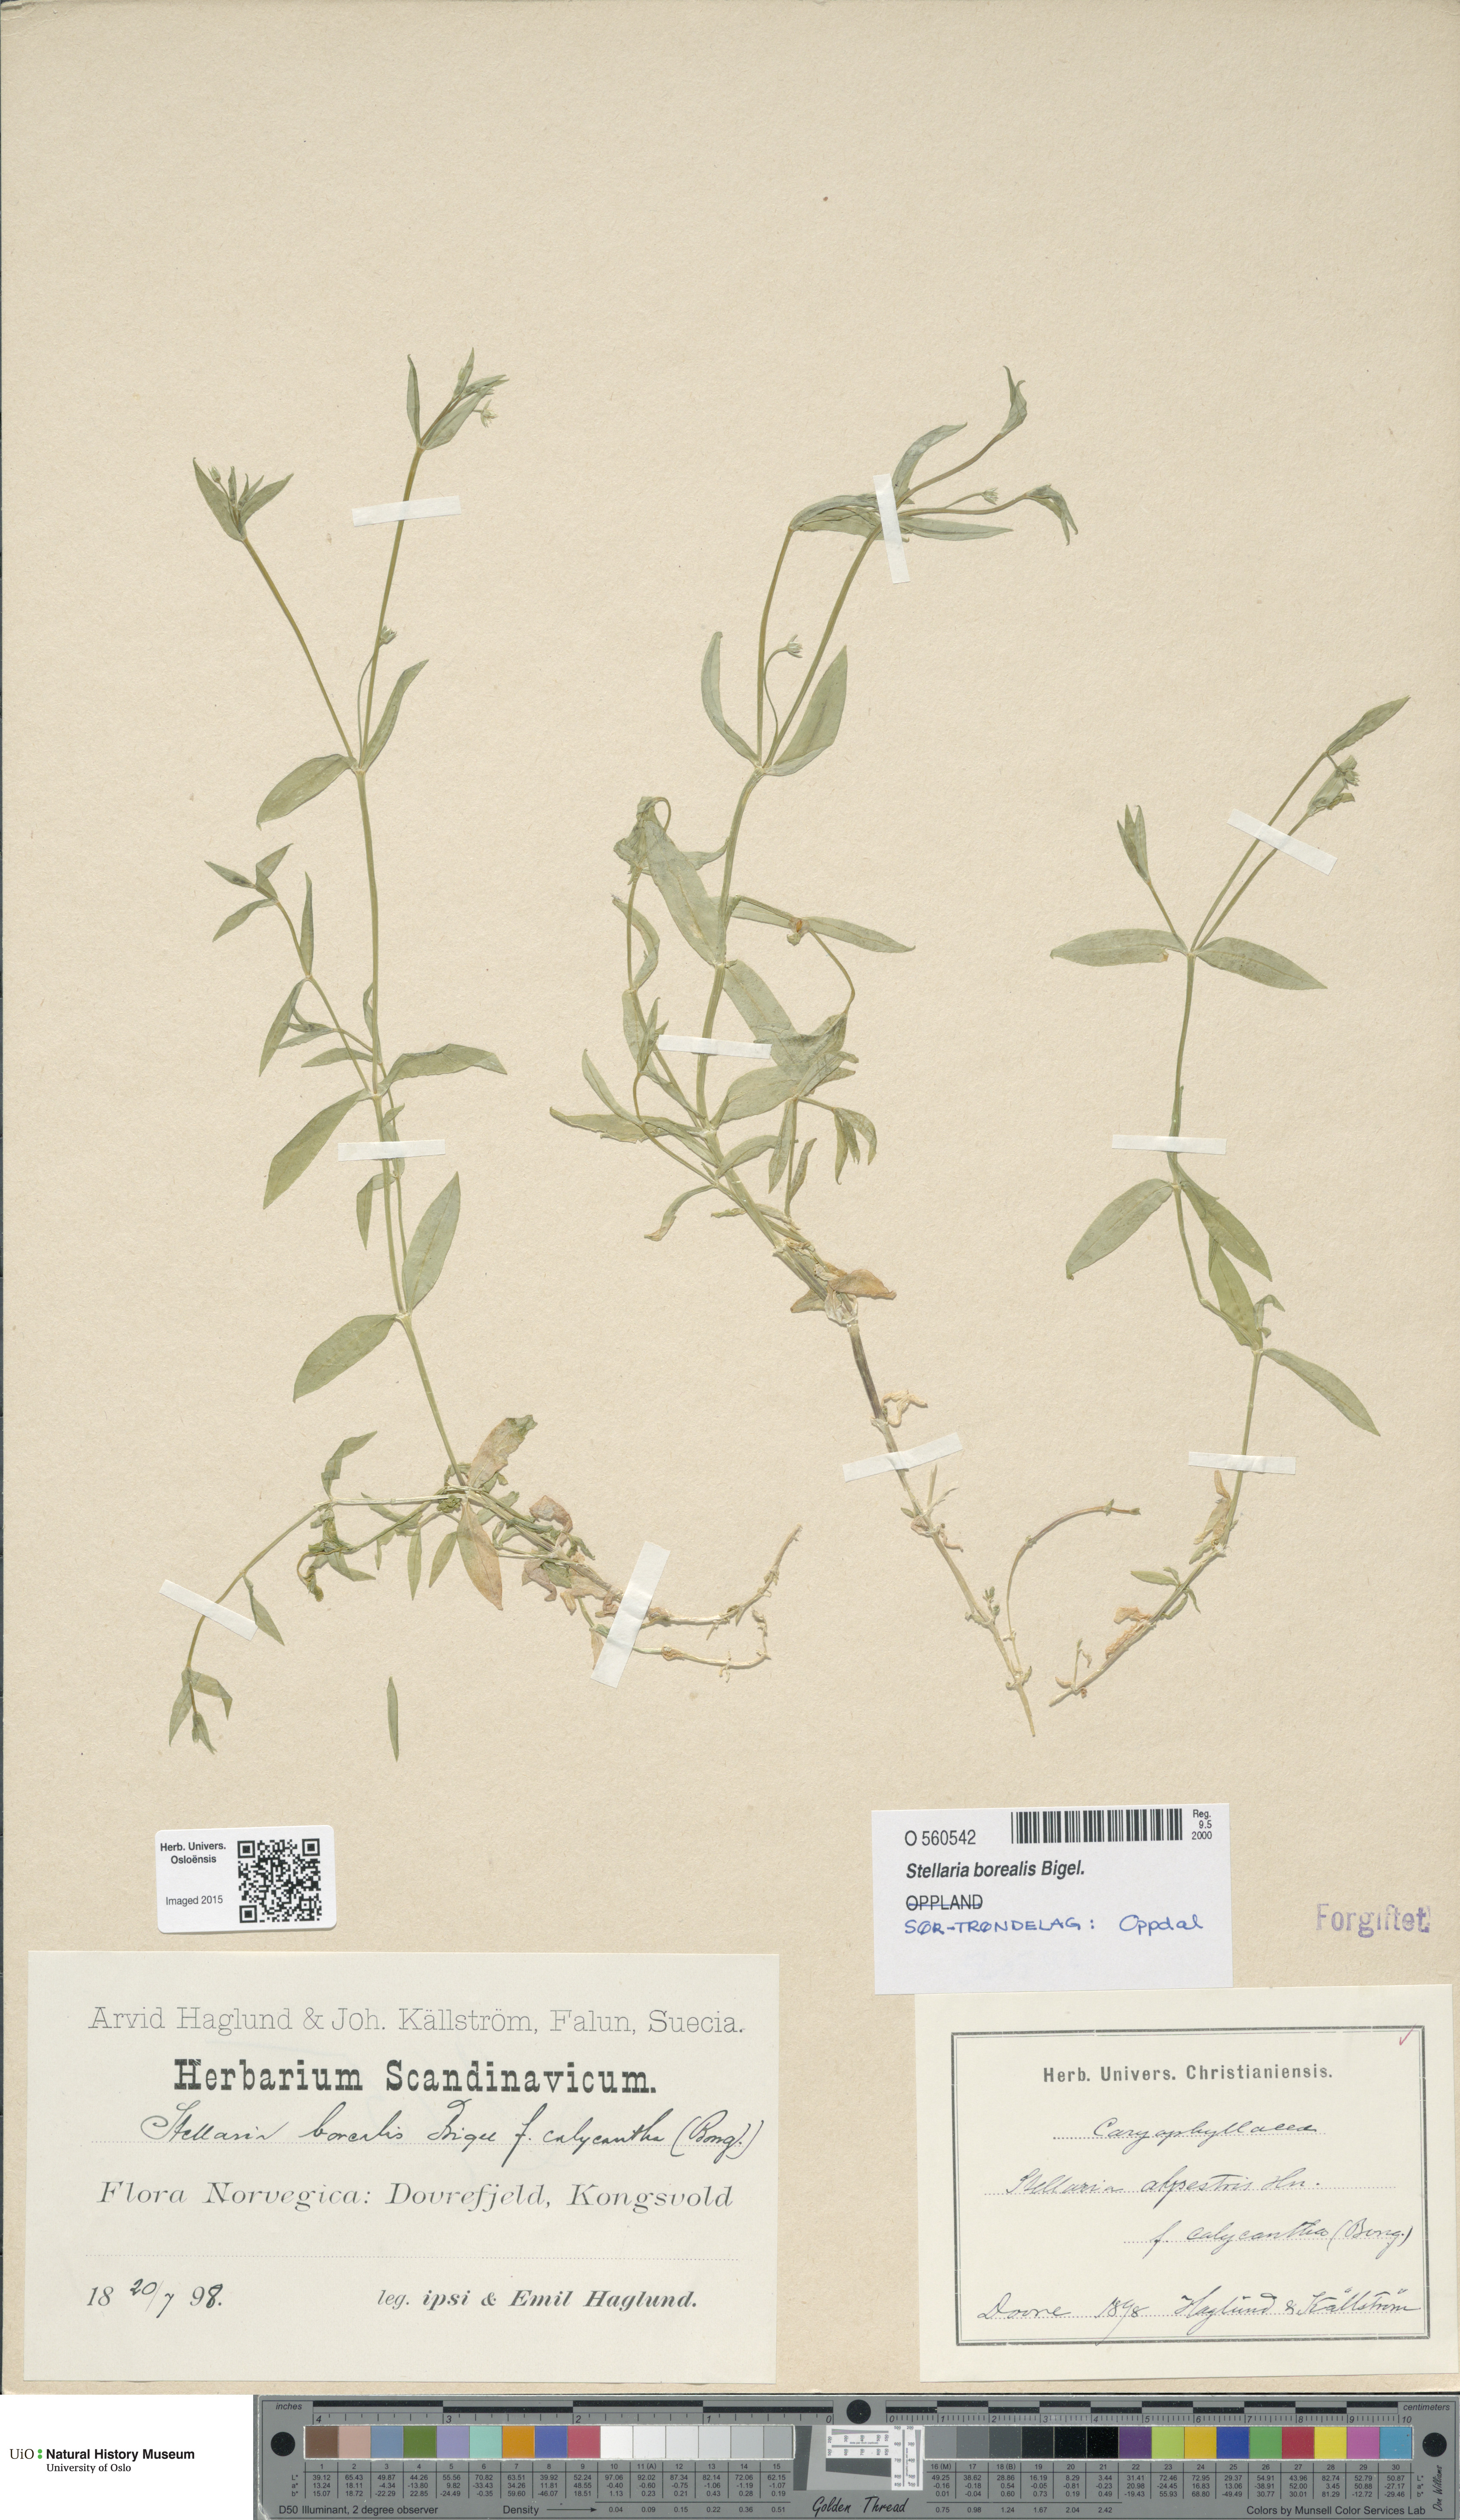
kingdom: Plantae
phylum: Tracheophyta
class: Magnoliopsida
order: Caryophyllales
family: Caryophyllaceae
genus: Stellaria
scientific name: Stellaria borealis
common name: Boreal starwort
